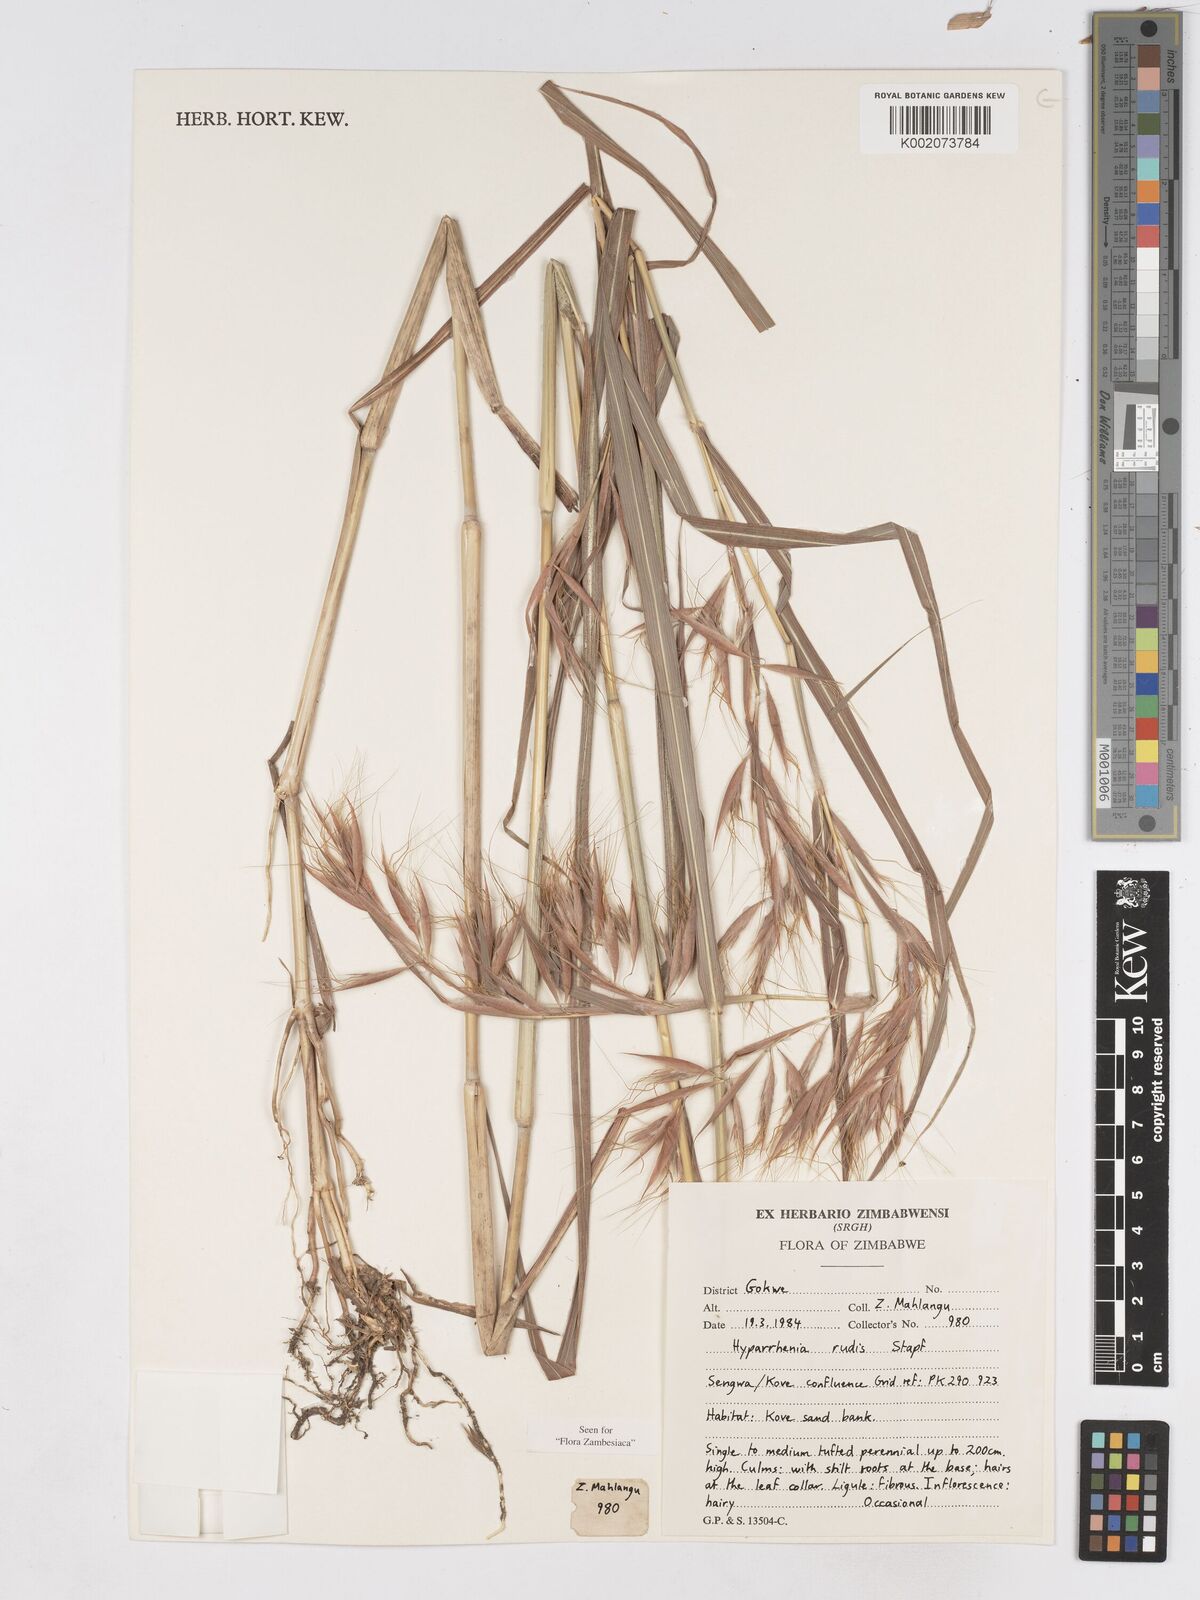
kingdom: Plantae
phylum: Tracheophyta
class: Liliopsida
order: Poales
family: Poaceae
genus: Hyparrhenia
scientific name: Hyparrhenia rudis
